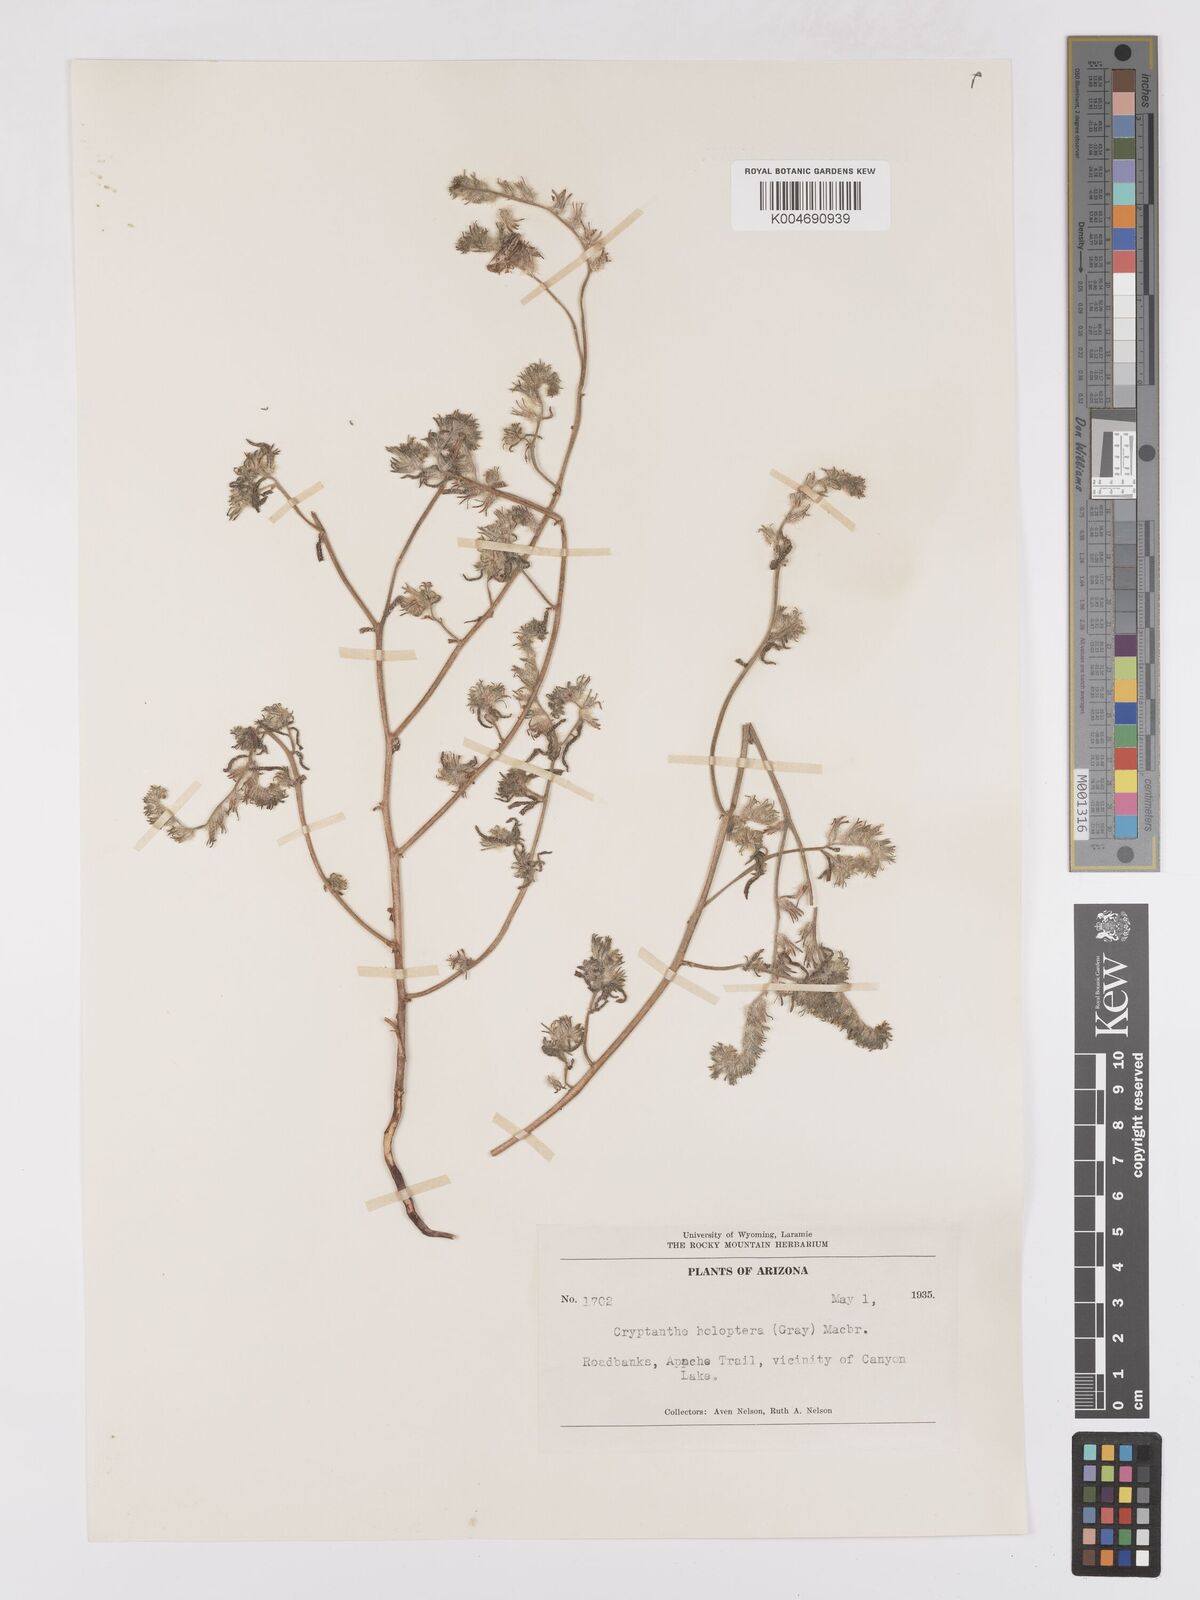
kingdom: Plantae
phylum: Tracheophyta
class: Magnoliopsida
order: Boraginales
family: Boraginaceae
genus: Johnstonella
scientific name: Johnstonella holoptera
